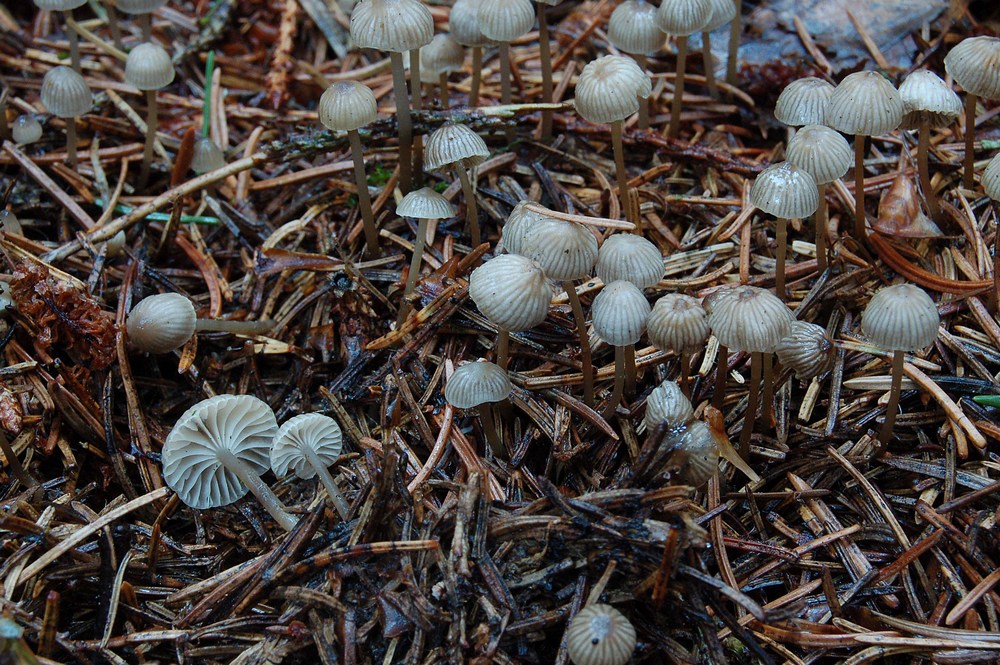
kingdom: Fungi
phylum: Basidiomycota
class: Agaricomycetes
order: Agaricales
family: Mycenaceae
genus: Mycena
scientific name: Mycena vulgaris
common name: klæbrig huesvamp
